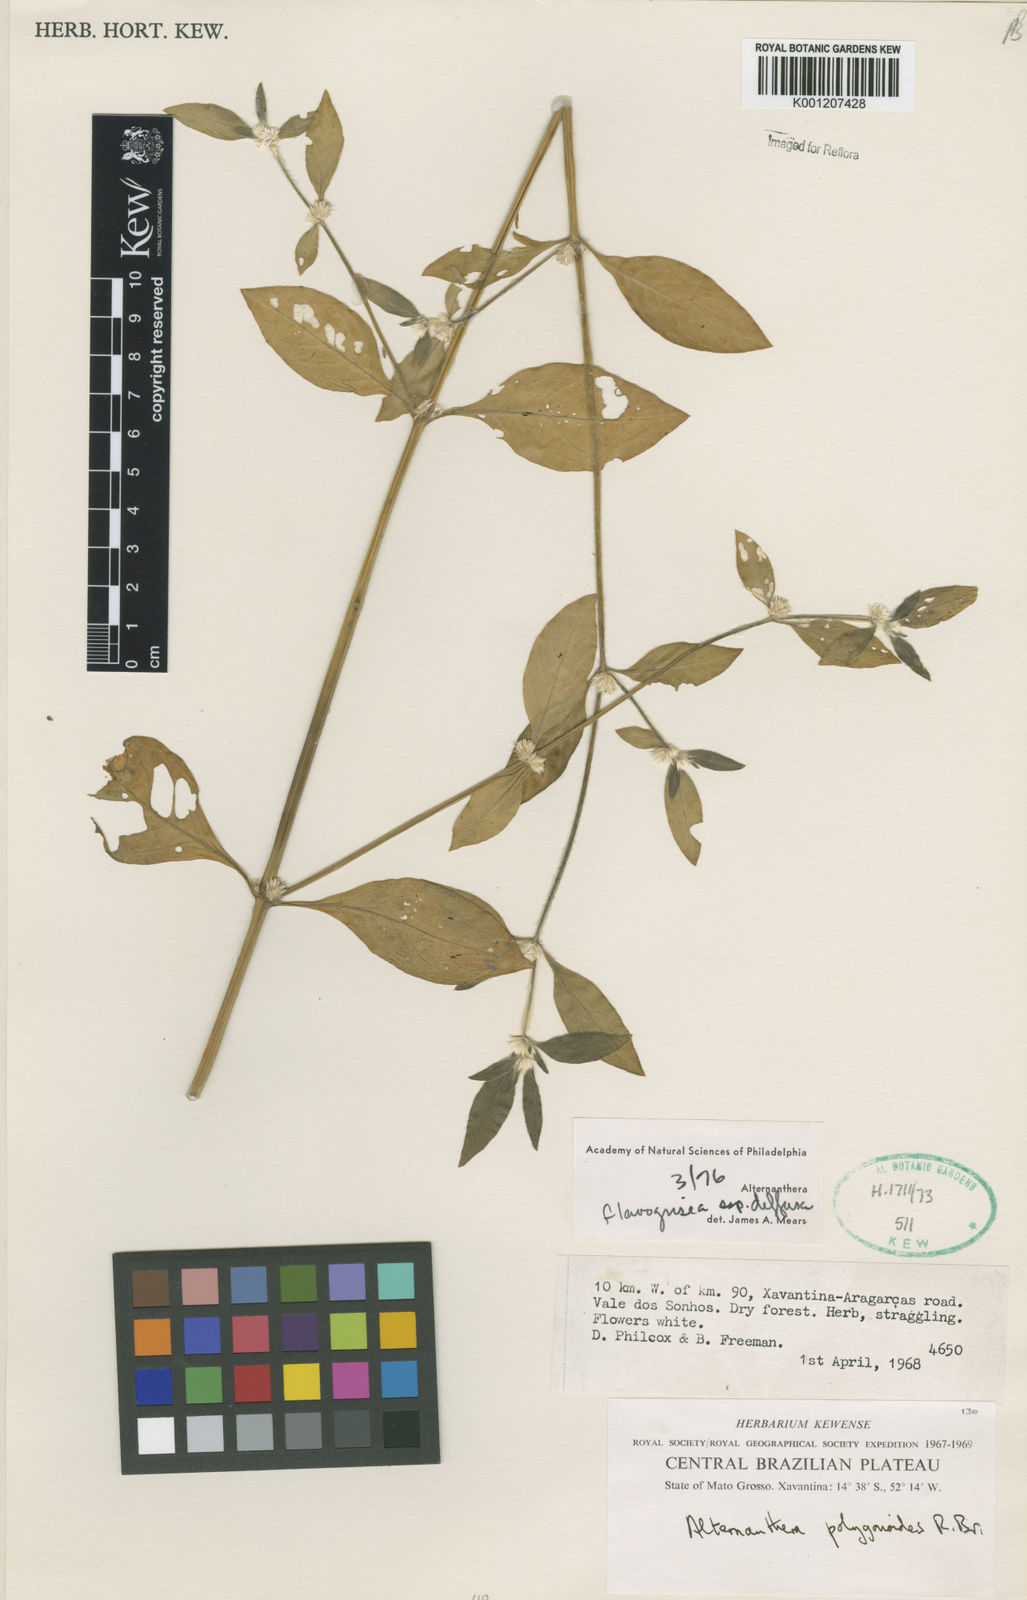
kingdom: Plantae
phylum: Tracheophyta
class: Magnoliopsida
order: Caryophyllales
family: Amaranthaceae
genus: Alternanthera
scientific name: Alternanthera halimifolia
